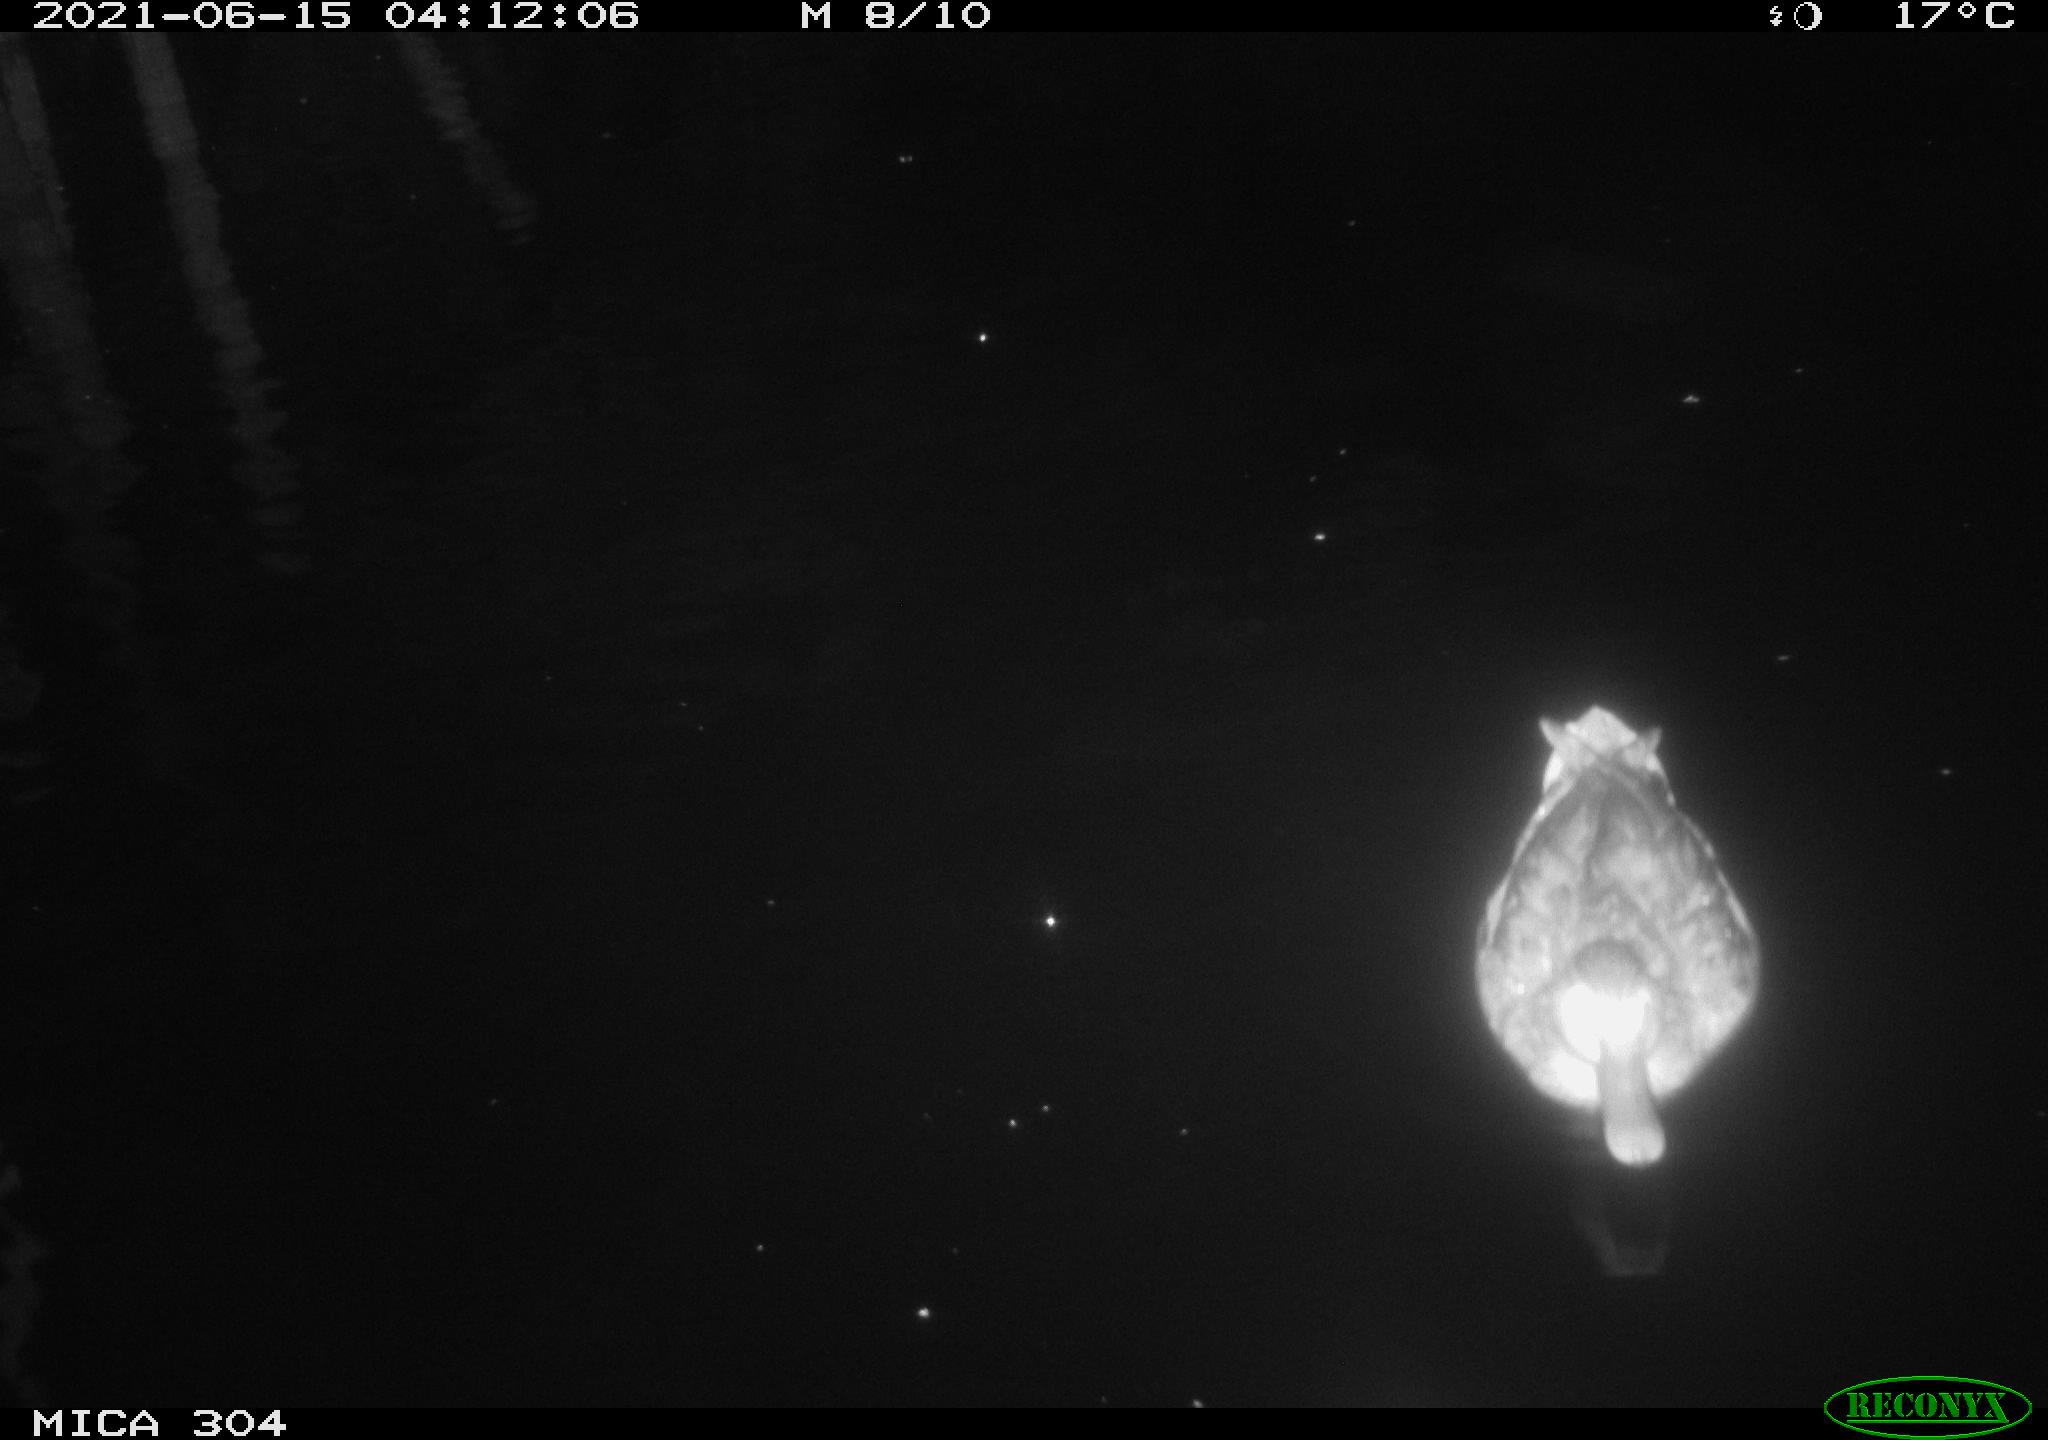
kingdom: Animalia
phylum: Chordata
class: Aves
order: Anseriformes
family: Anatidae
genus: Anas
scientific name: Anas platyrhynchos
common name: Mallard
